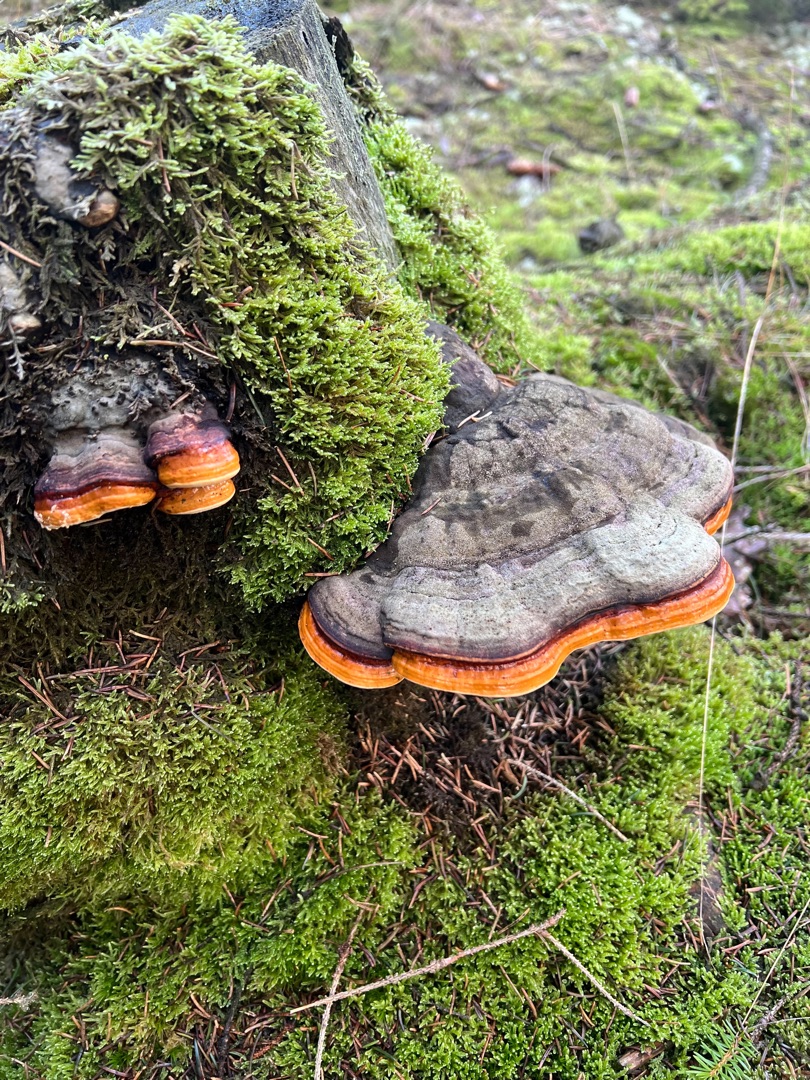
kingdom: Fungi
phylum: Basidiomycota
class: Agaricomycetes
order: Polyporales
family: Fomitopsidaceae
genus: Fomitopsis
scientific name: Fomitopsis pinicola
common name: Randbæltet hovporesvamp
